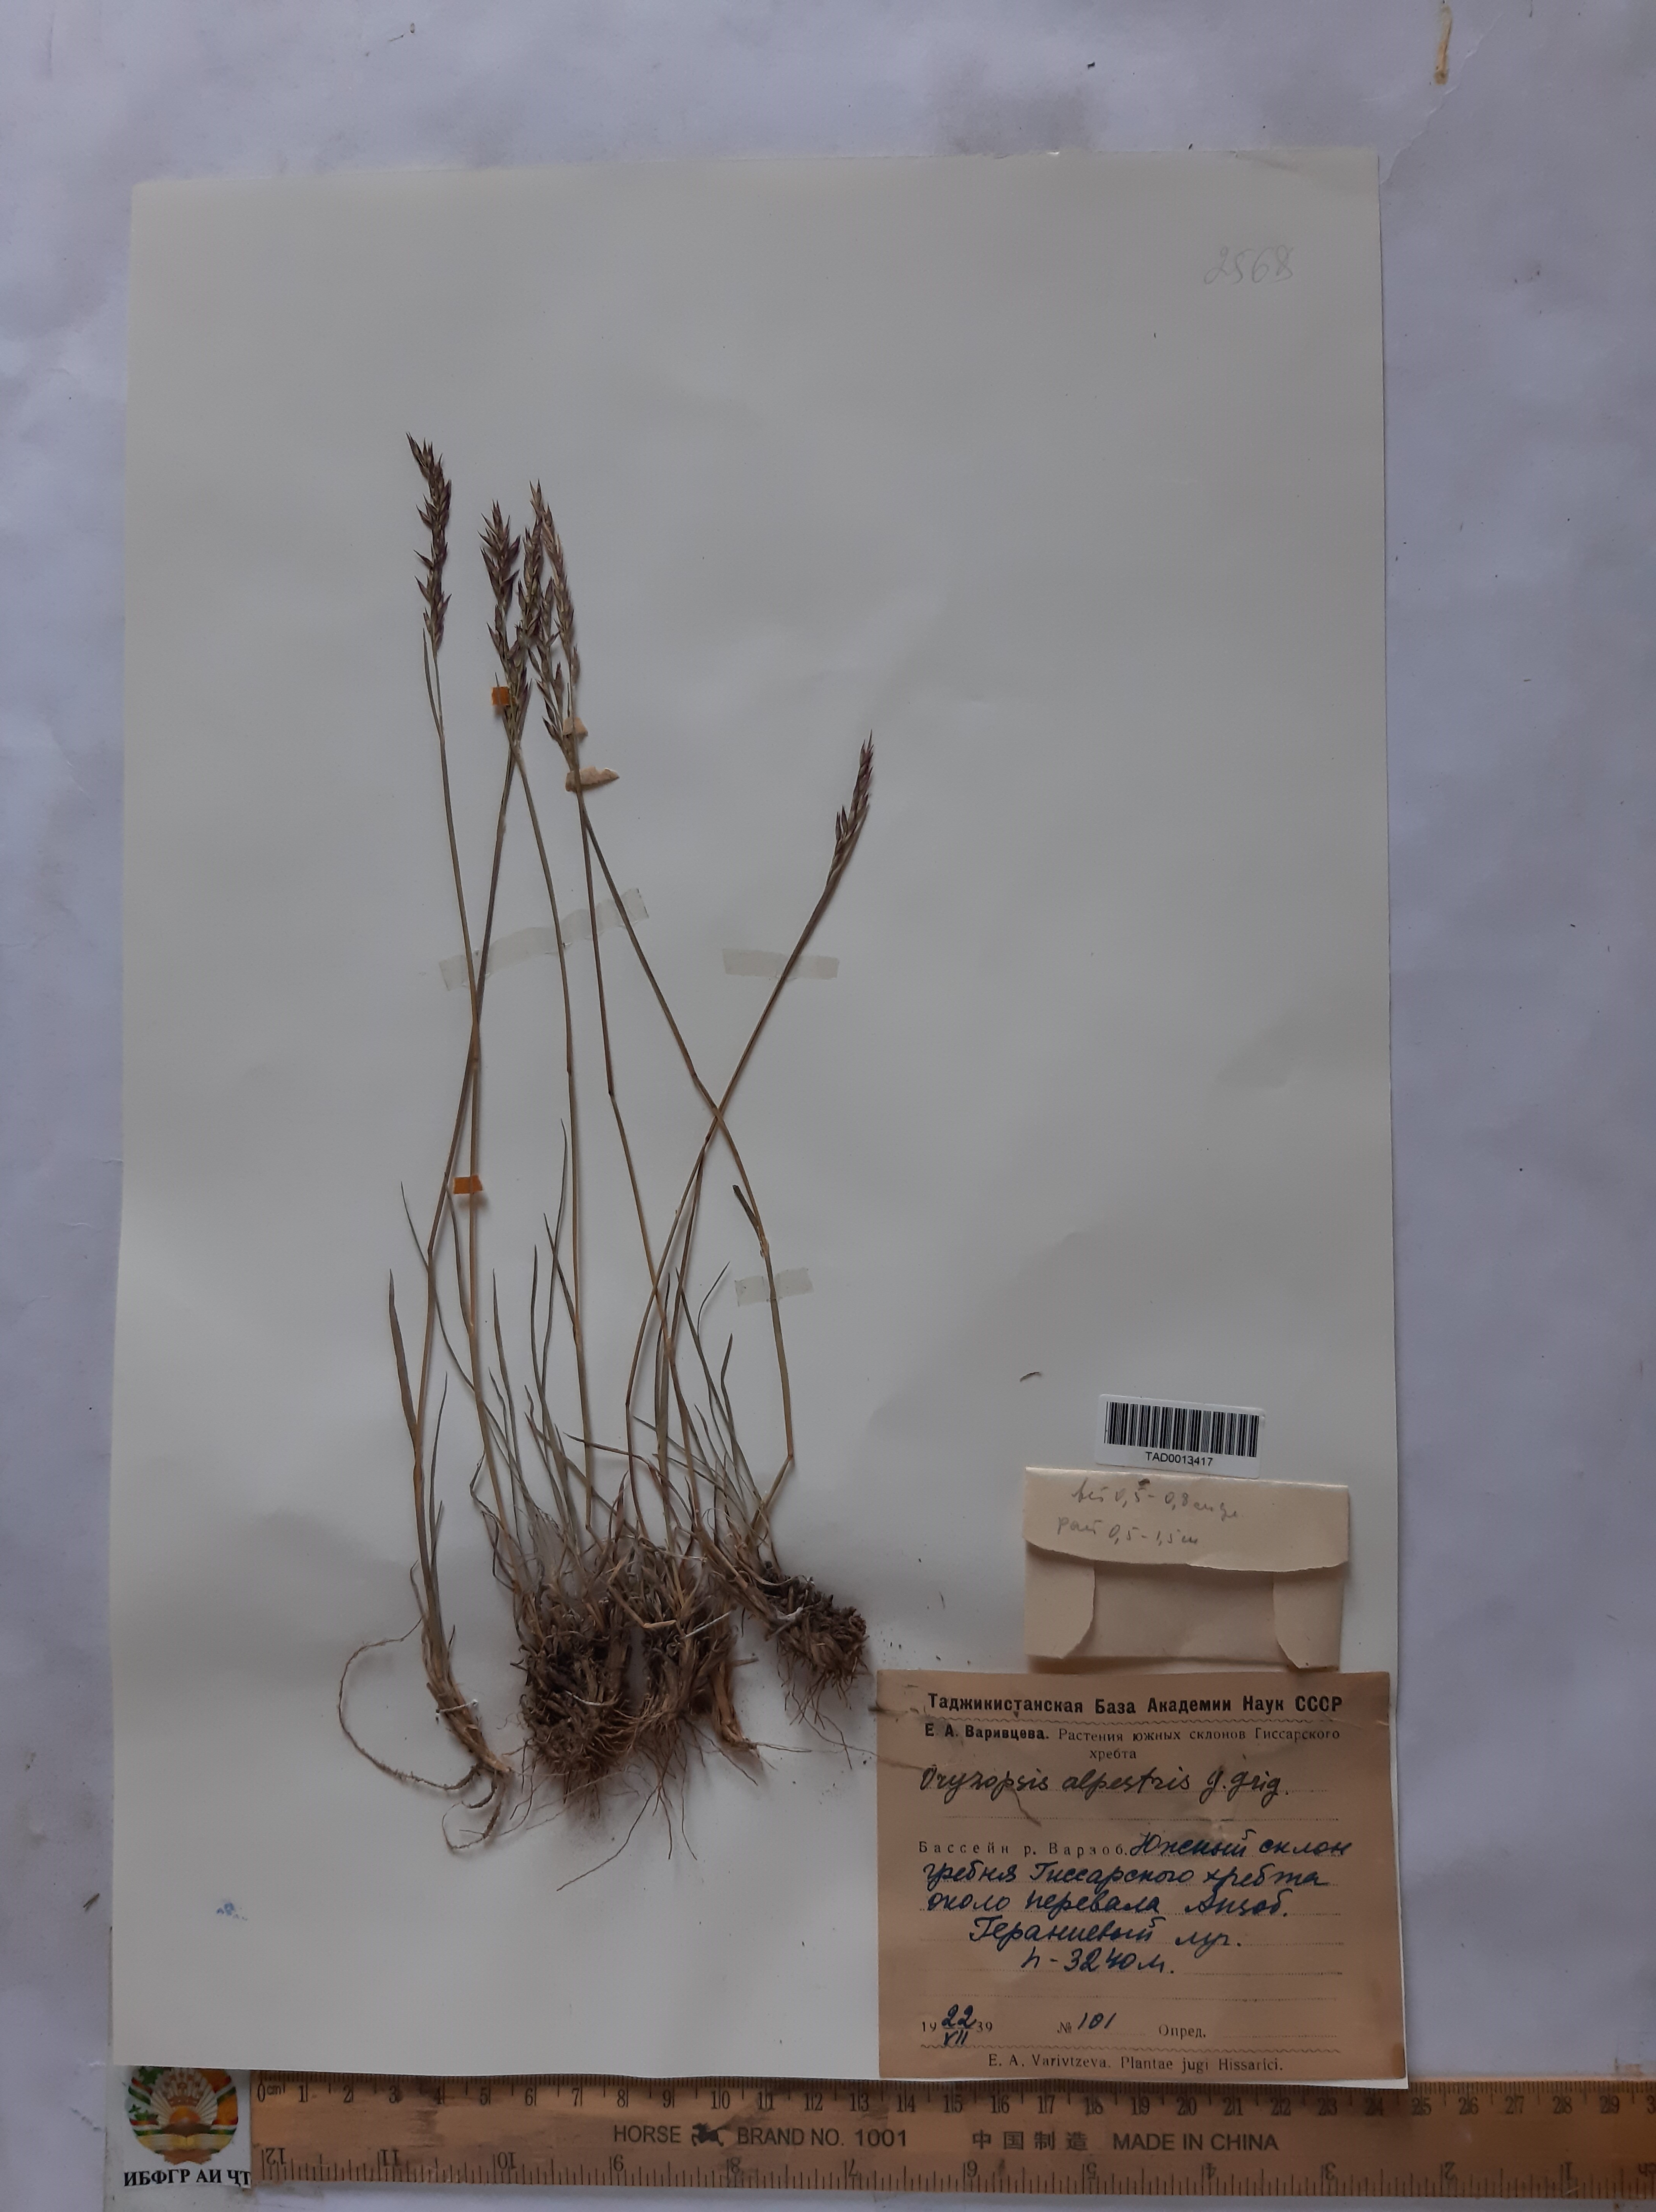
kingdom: Plantae
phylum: Tracheophyta
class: Liliopsida
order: Poales
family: Poaceae
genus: Piptatherum
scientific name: Piptatherum alpestre
